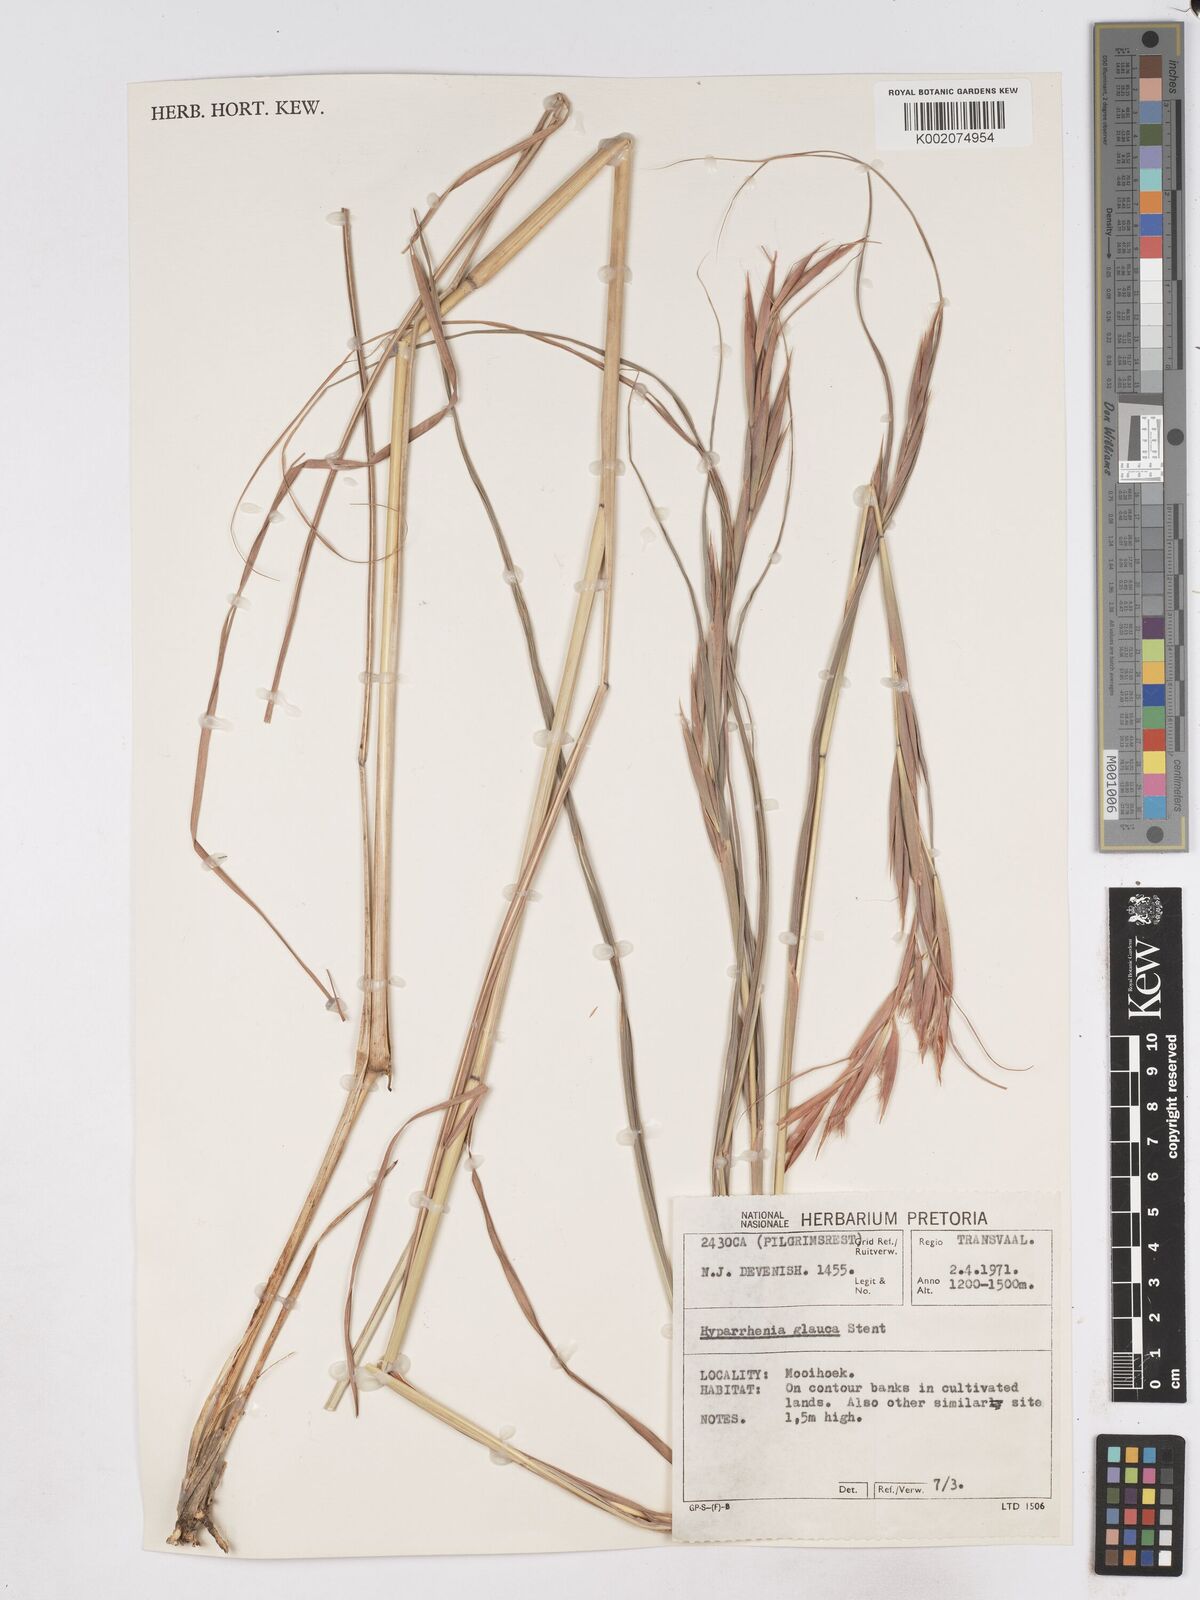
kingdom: Plantae
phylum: Tracheophyta
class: Liliopsida
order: Poales
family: Poaceae
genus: Hyparrhenia
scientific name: Hyparrhenia tamba
